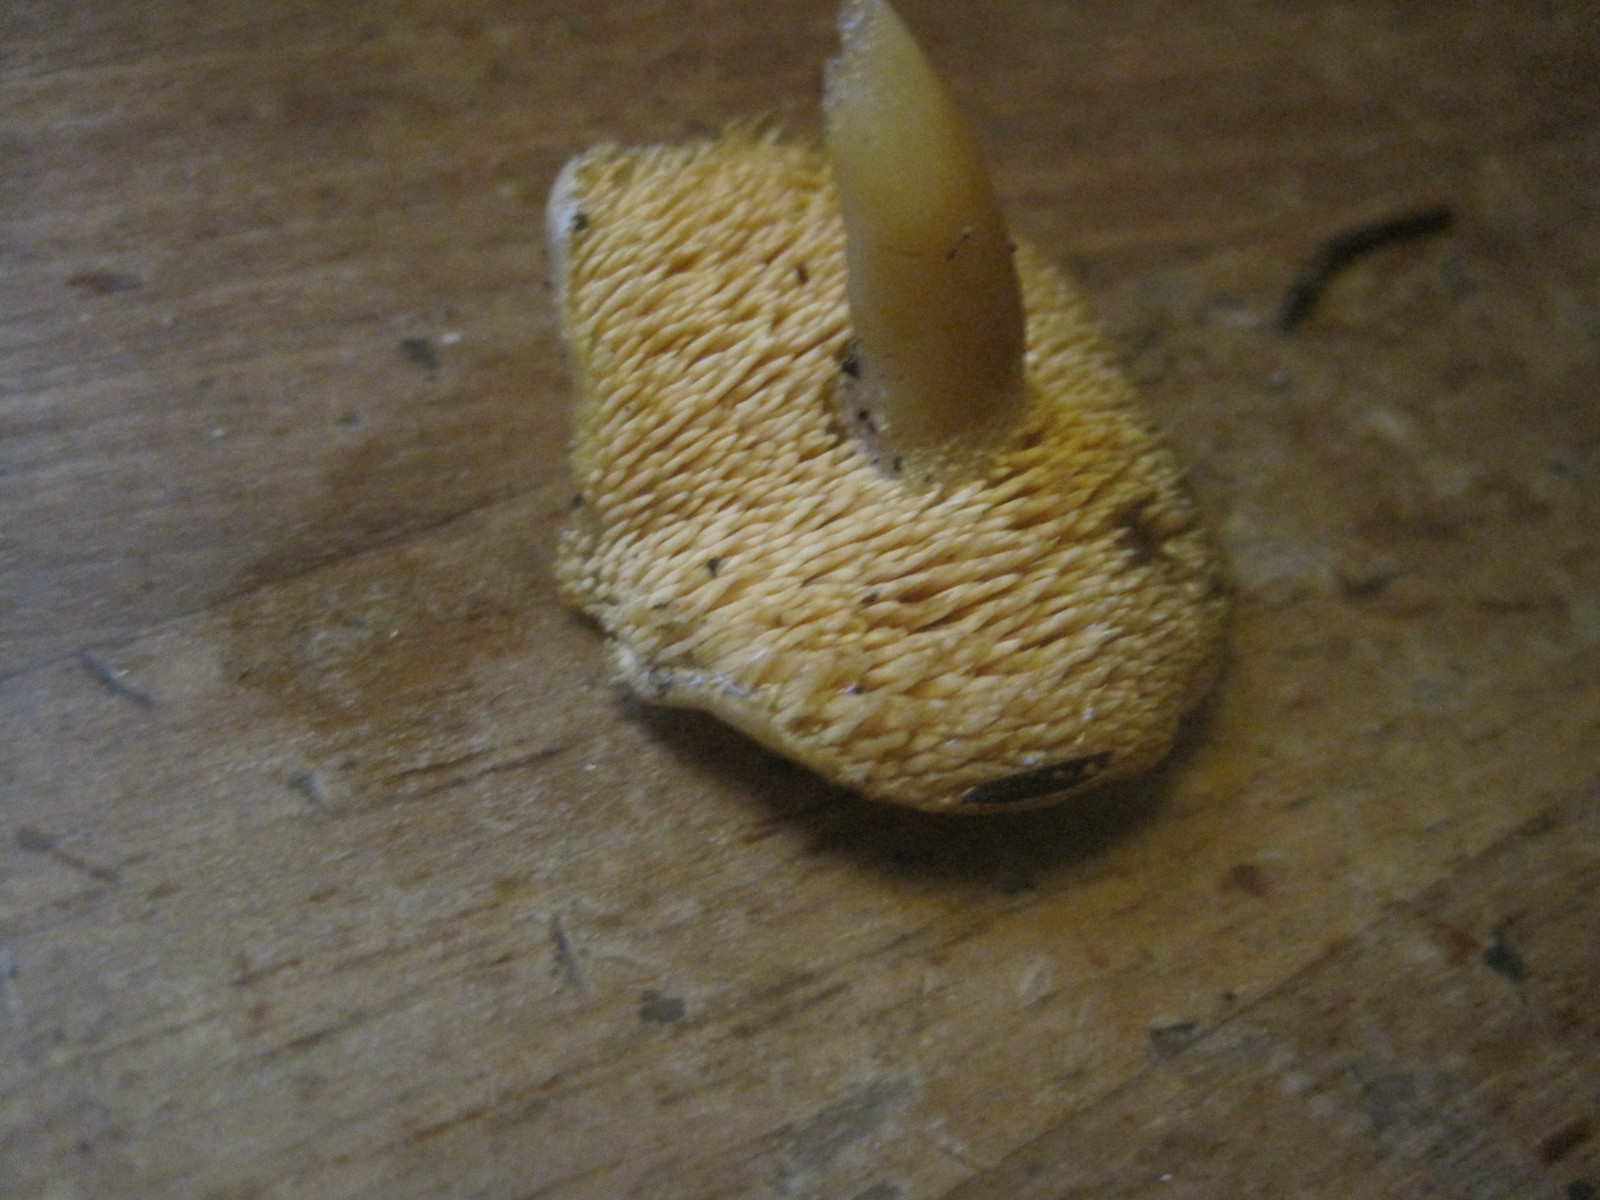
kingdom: Fungi
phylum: Basidiomycota
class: Agaricomycetes
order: Cantharellales
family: Hydnaceae
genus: Hydnum
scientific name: Hydnum
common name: pigsvamp
